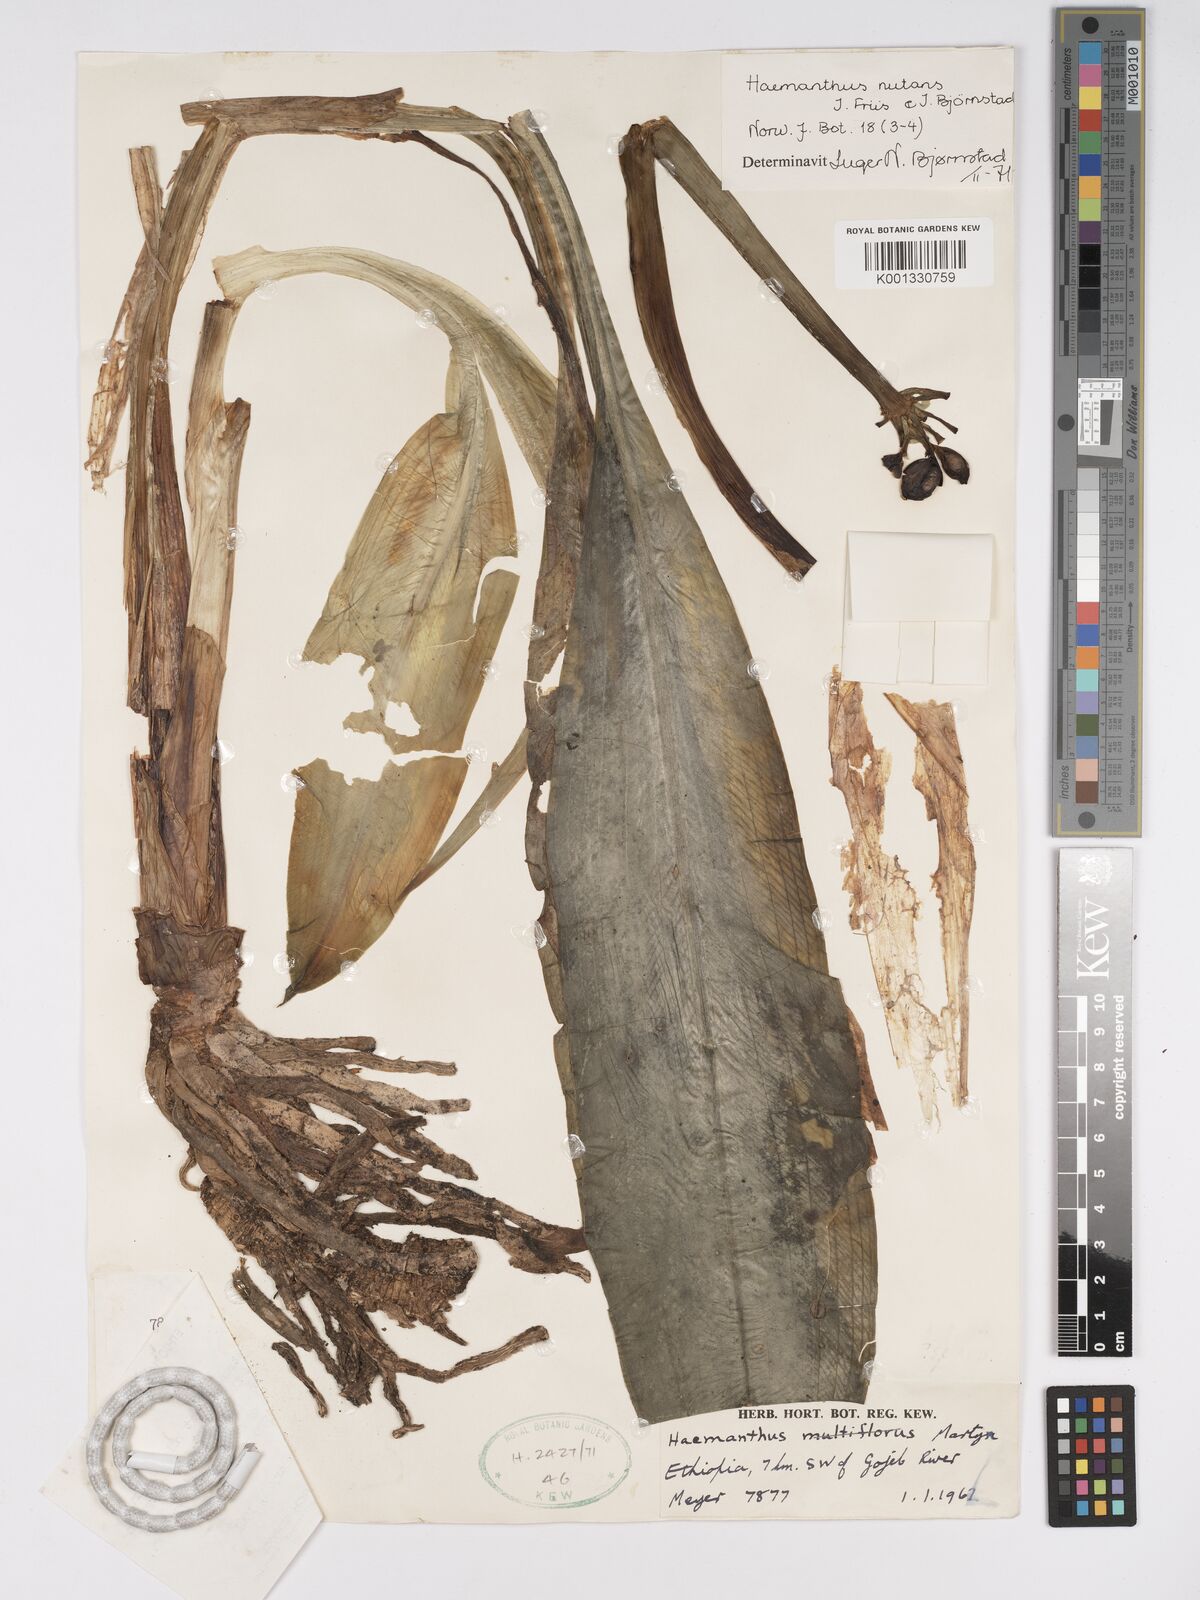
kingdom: Plantae
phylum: Tracheophyta
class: Liliopsida
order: Asparagales
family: Amaryllidaceae
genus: Scadoxus
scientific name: Scadoxus nutans
